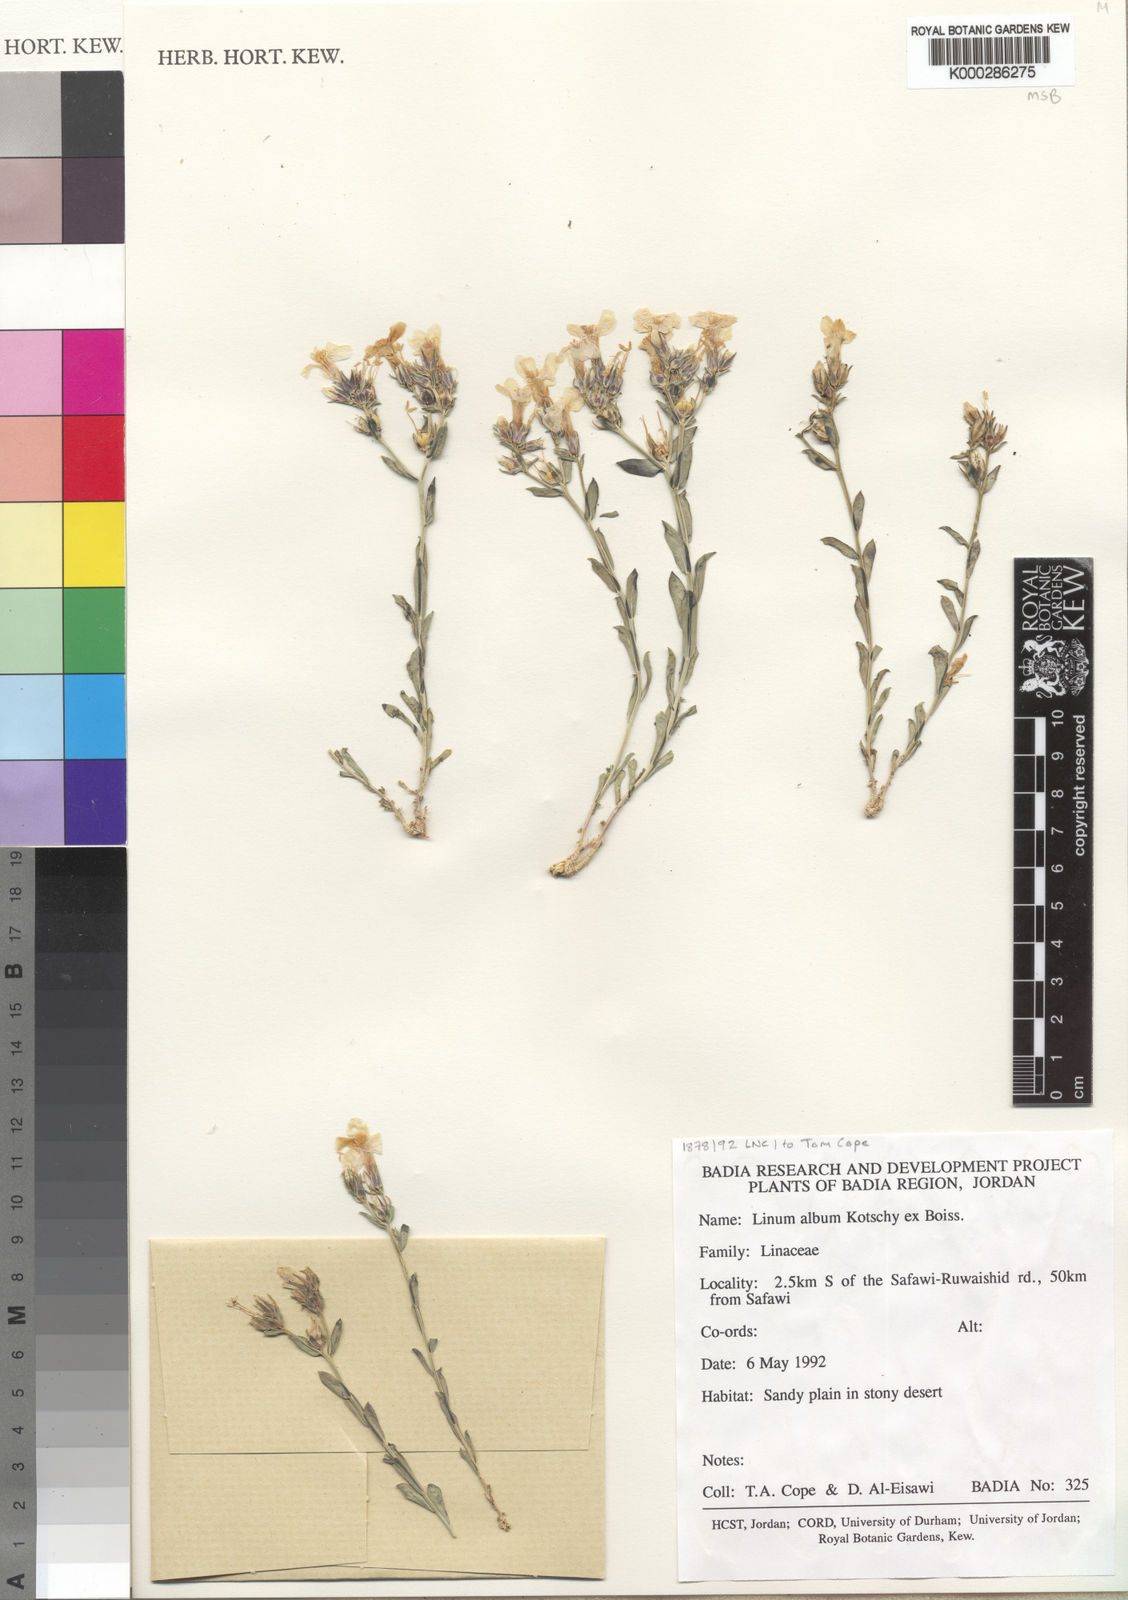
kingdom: Plantae
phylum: Tracheophyta
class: Magnoliopsida
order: Malpighiales
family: Linaceae
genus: Linum
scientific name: Linum album
